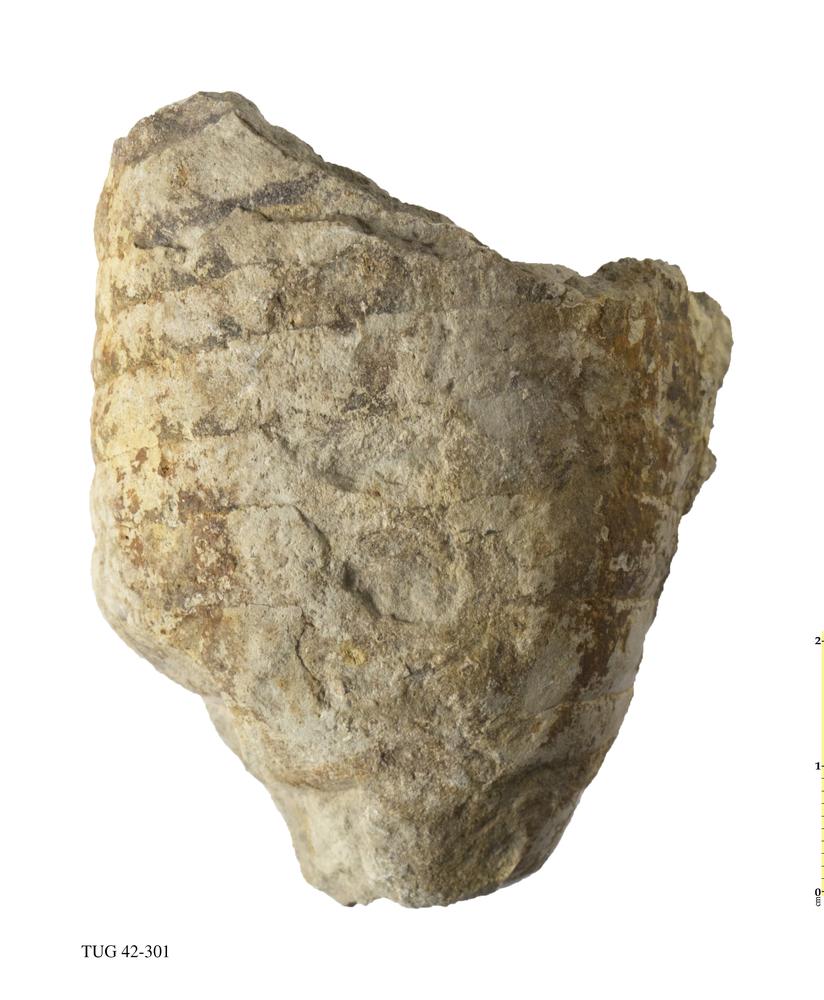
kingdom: Animalia
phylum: Mollusca
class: Cephalopoda
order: Orthocerida
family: Orthoceratidae
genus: Orthoceras
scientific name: Orthoceras
